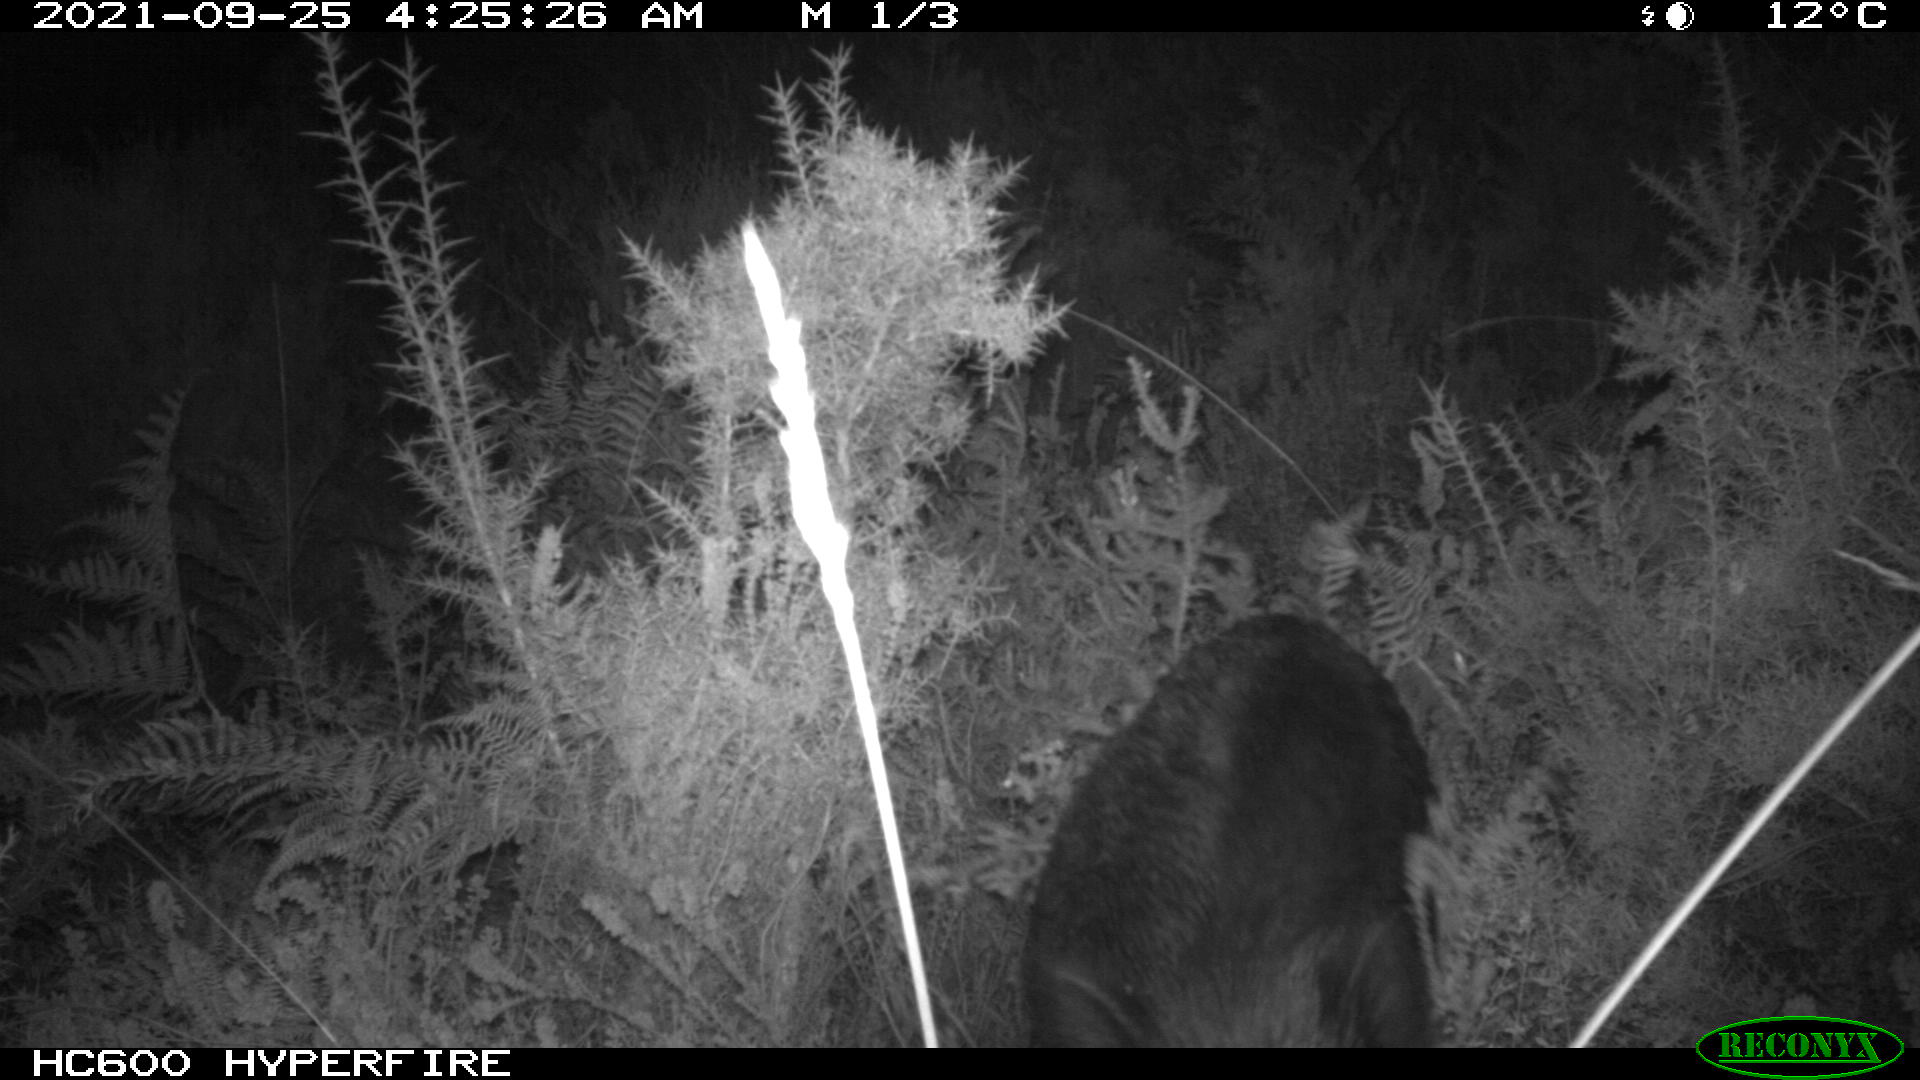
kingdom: Animalia
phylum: Chordata
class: Mammalia
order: Artiodactyla
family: Suidae
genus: Sus
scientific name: Sus scrofa
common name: Wild boar
